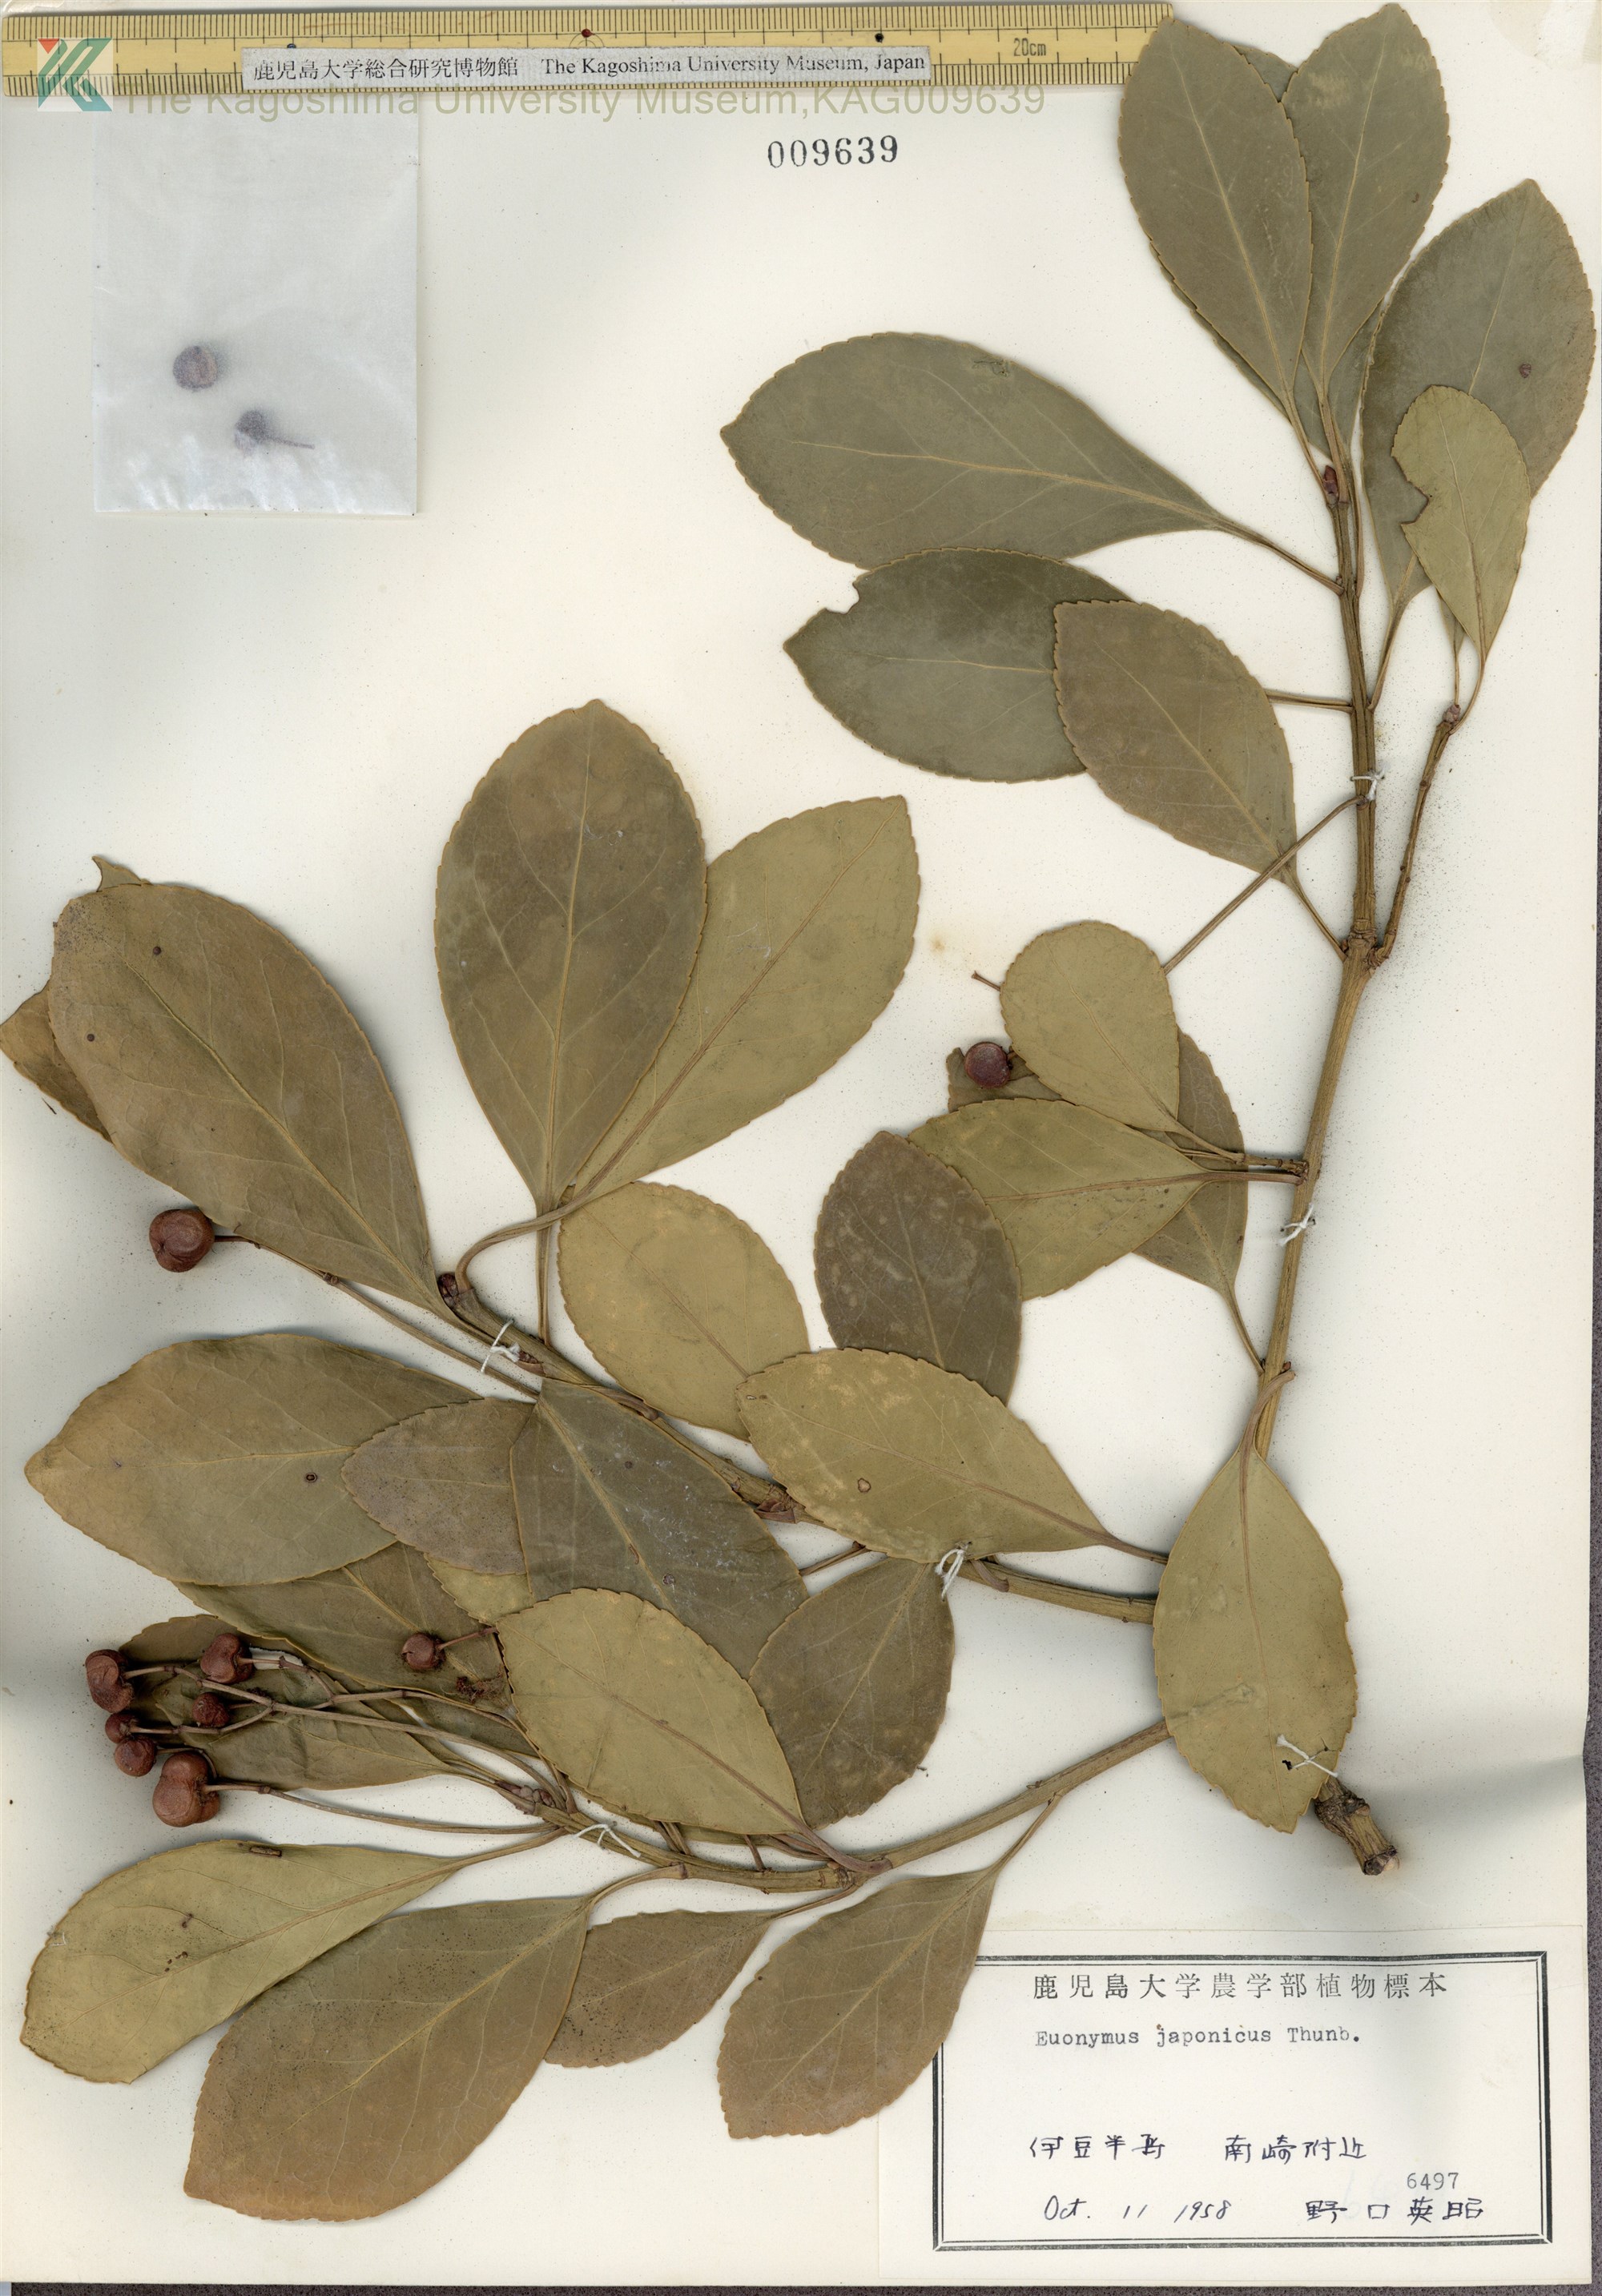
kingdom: Plantae
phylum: Tracheophyta
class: Magnoliopsida
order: Celastrales
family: Celastraceae
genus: Euonymus
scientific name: Euonymus japonicus
